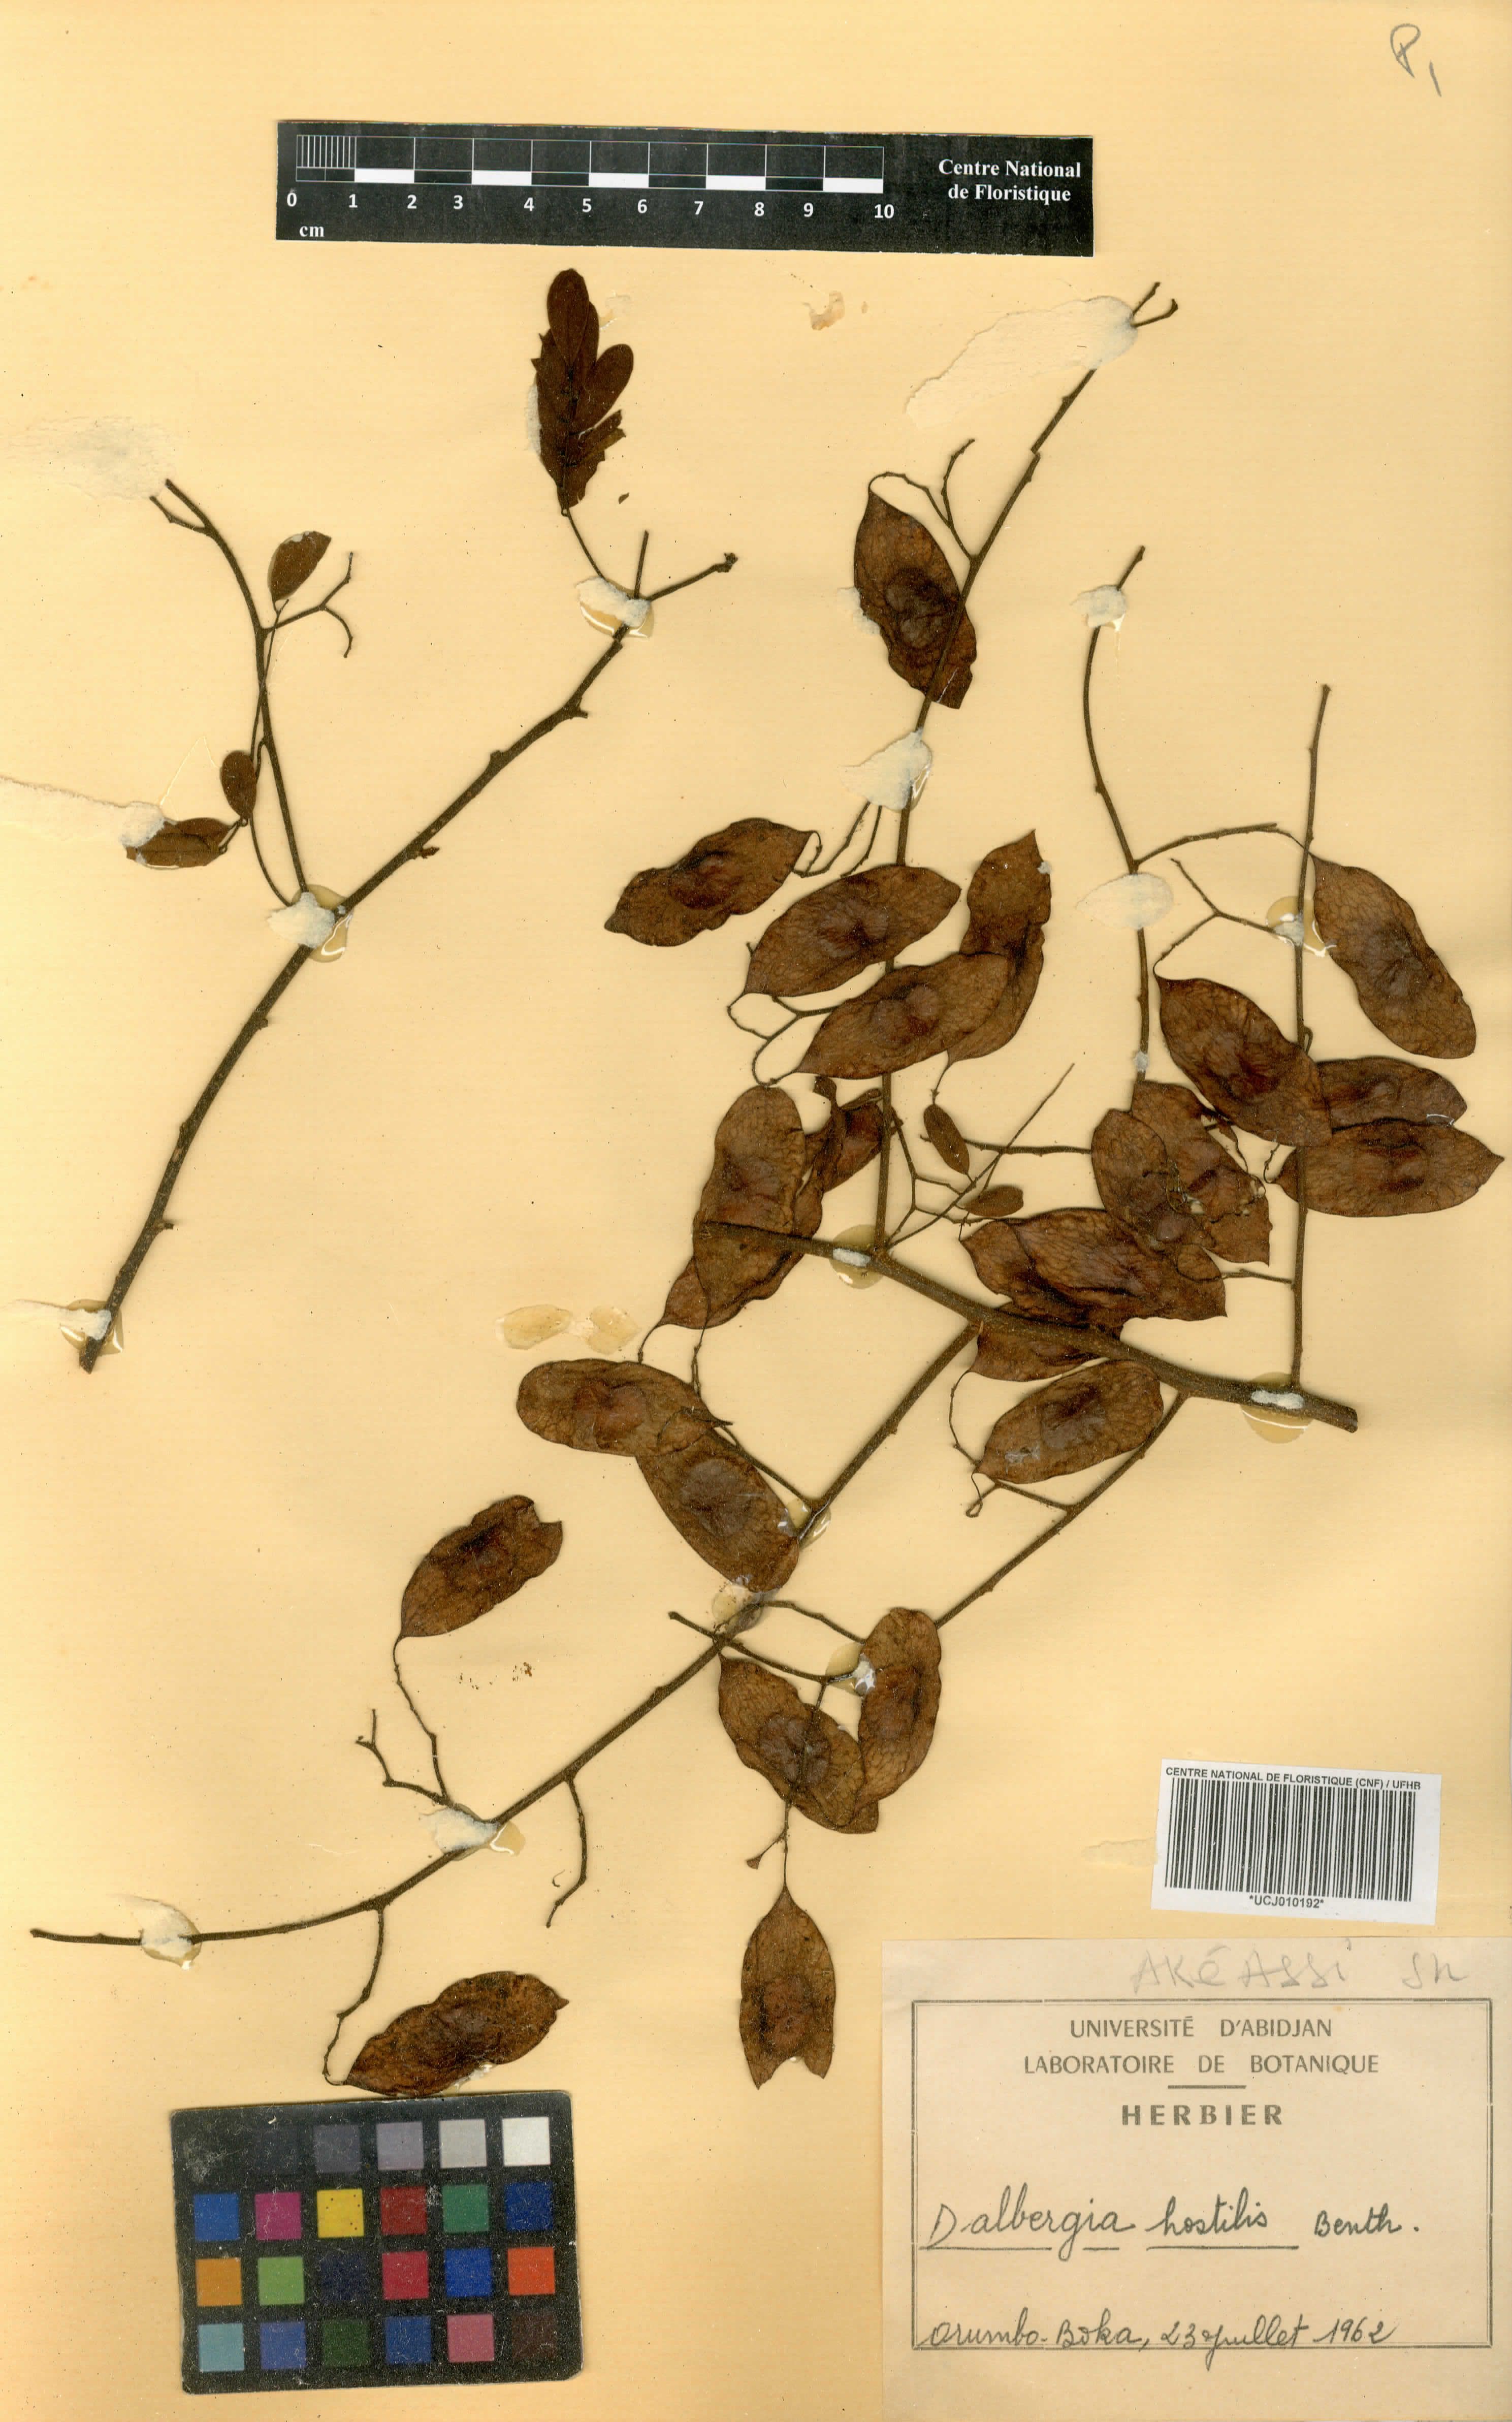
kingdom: Plantae
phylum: Tracheophyta
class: Magnoliopsida
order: Fabales
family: Fabaceae
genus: Dalbergia
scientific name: Dalbergia hostilis
